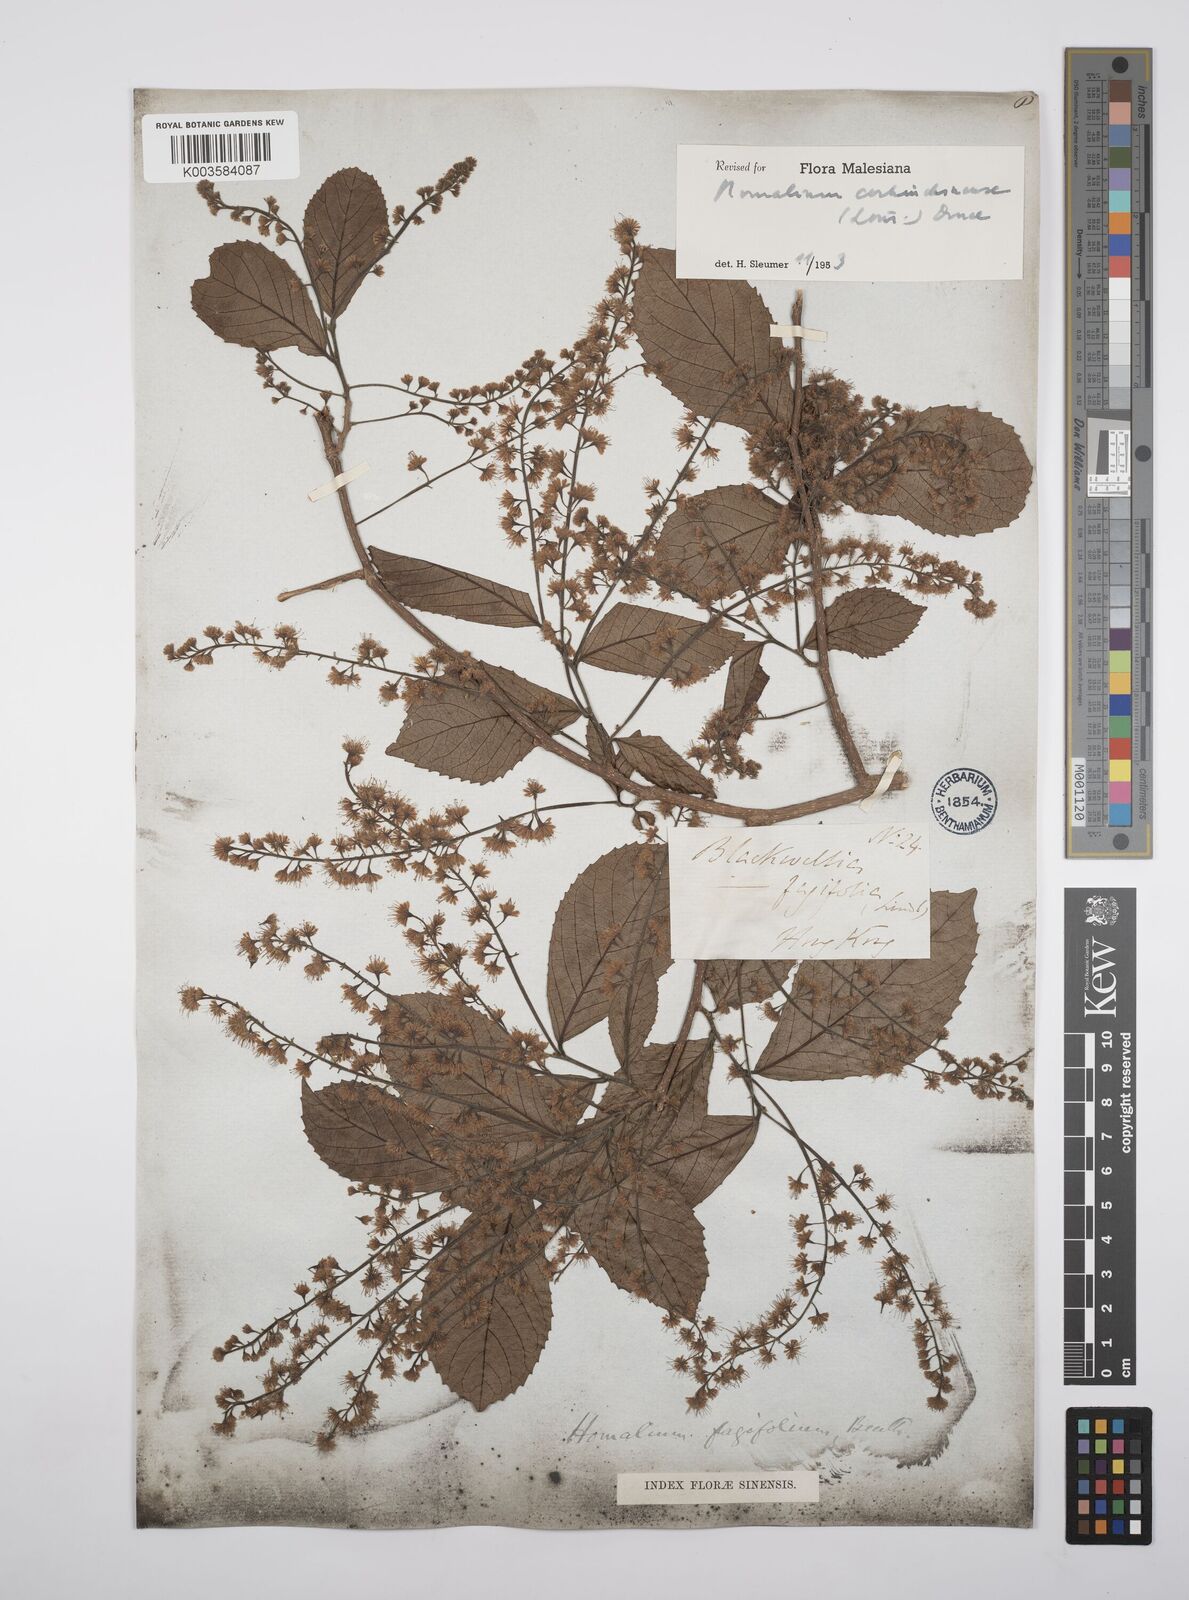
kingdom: Plantae
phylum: Tracheophyta
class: Magnoliopsida
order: Malpighiales
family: Salicaceae
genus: Homalium
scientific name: Homalium cochinchinensis
